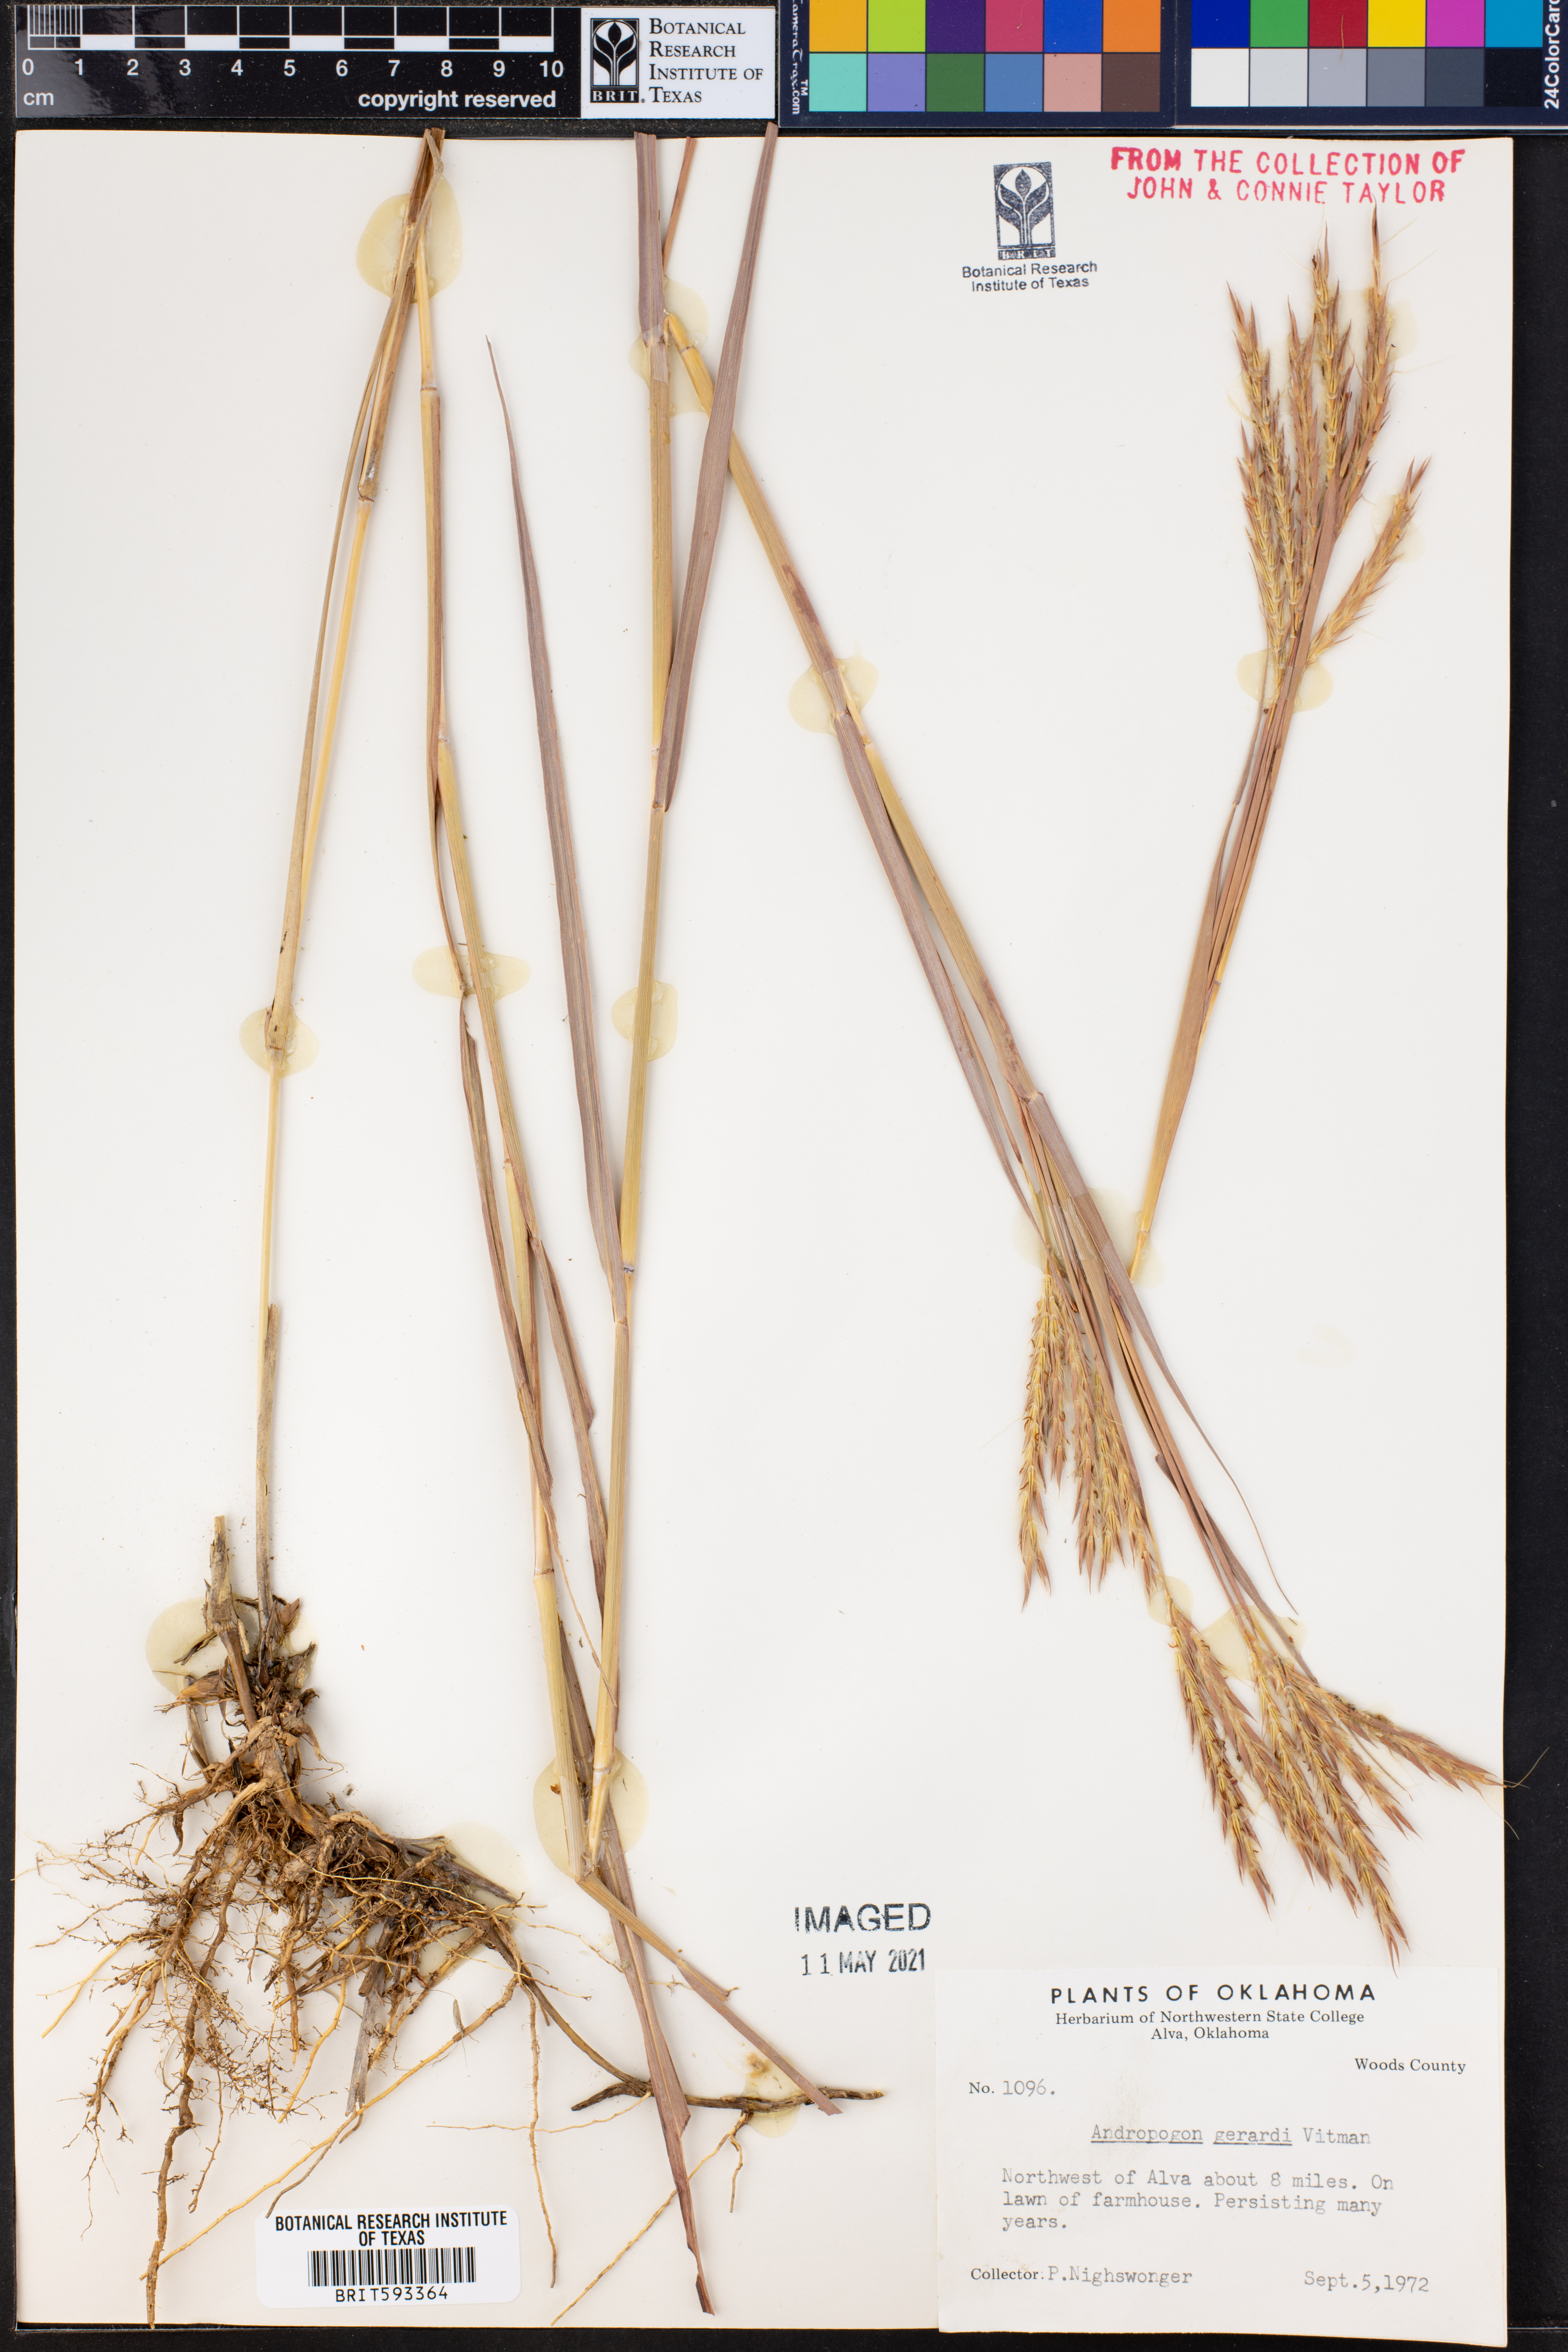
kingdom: Plantae
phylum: Tracheophyta
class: Liliopsida
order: Poales
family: Poaceae
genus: Andropogon
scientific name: Andropogon gerardi
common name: Big bluestem
